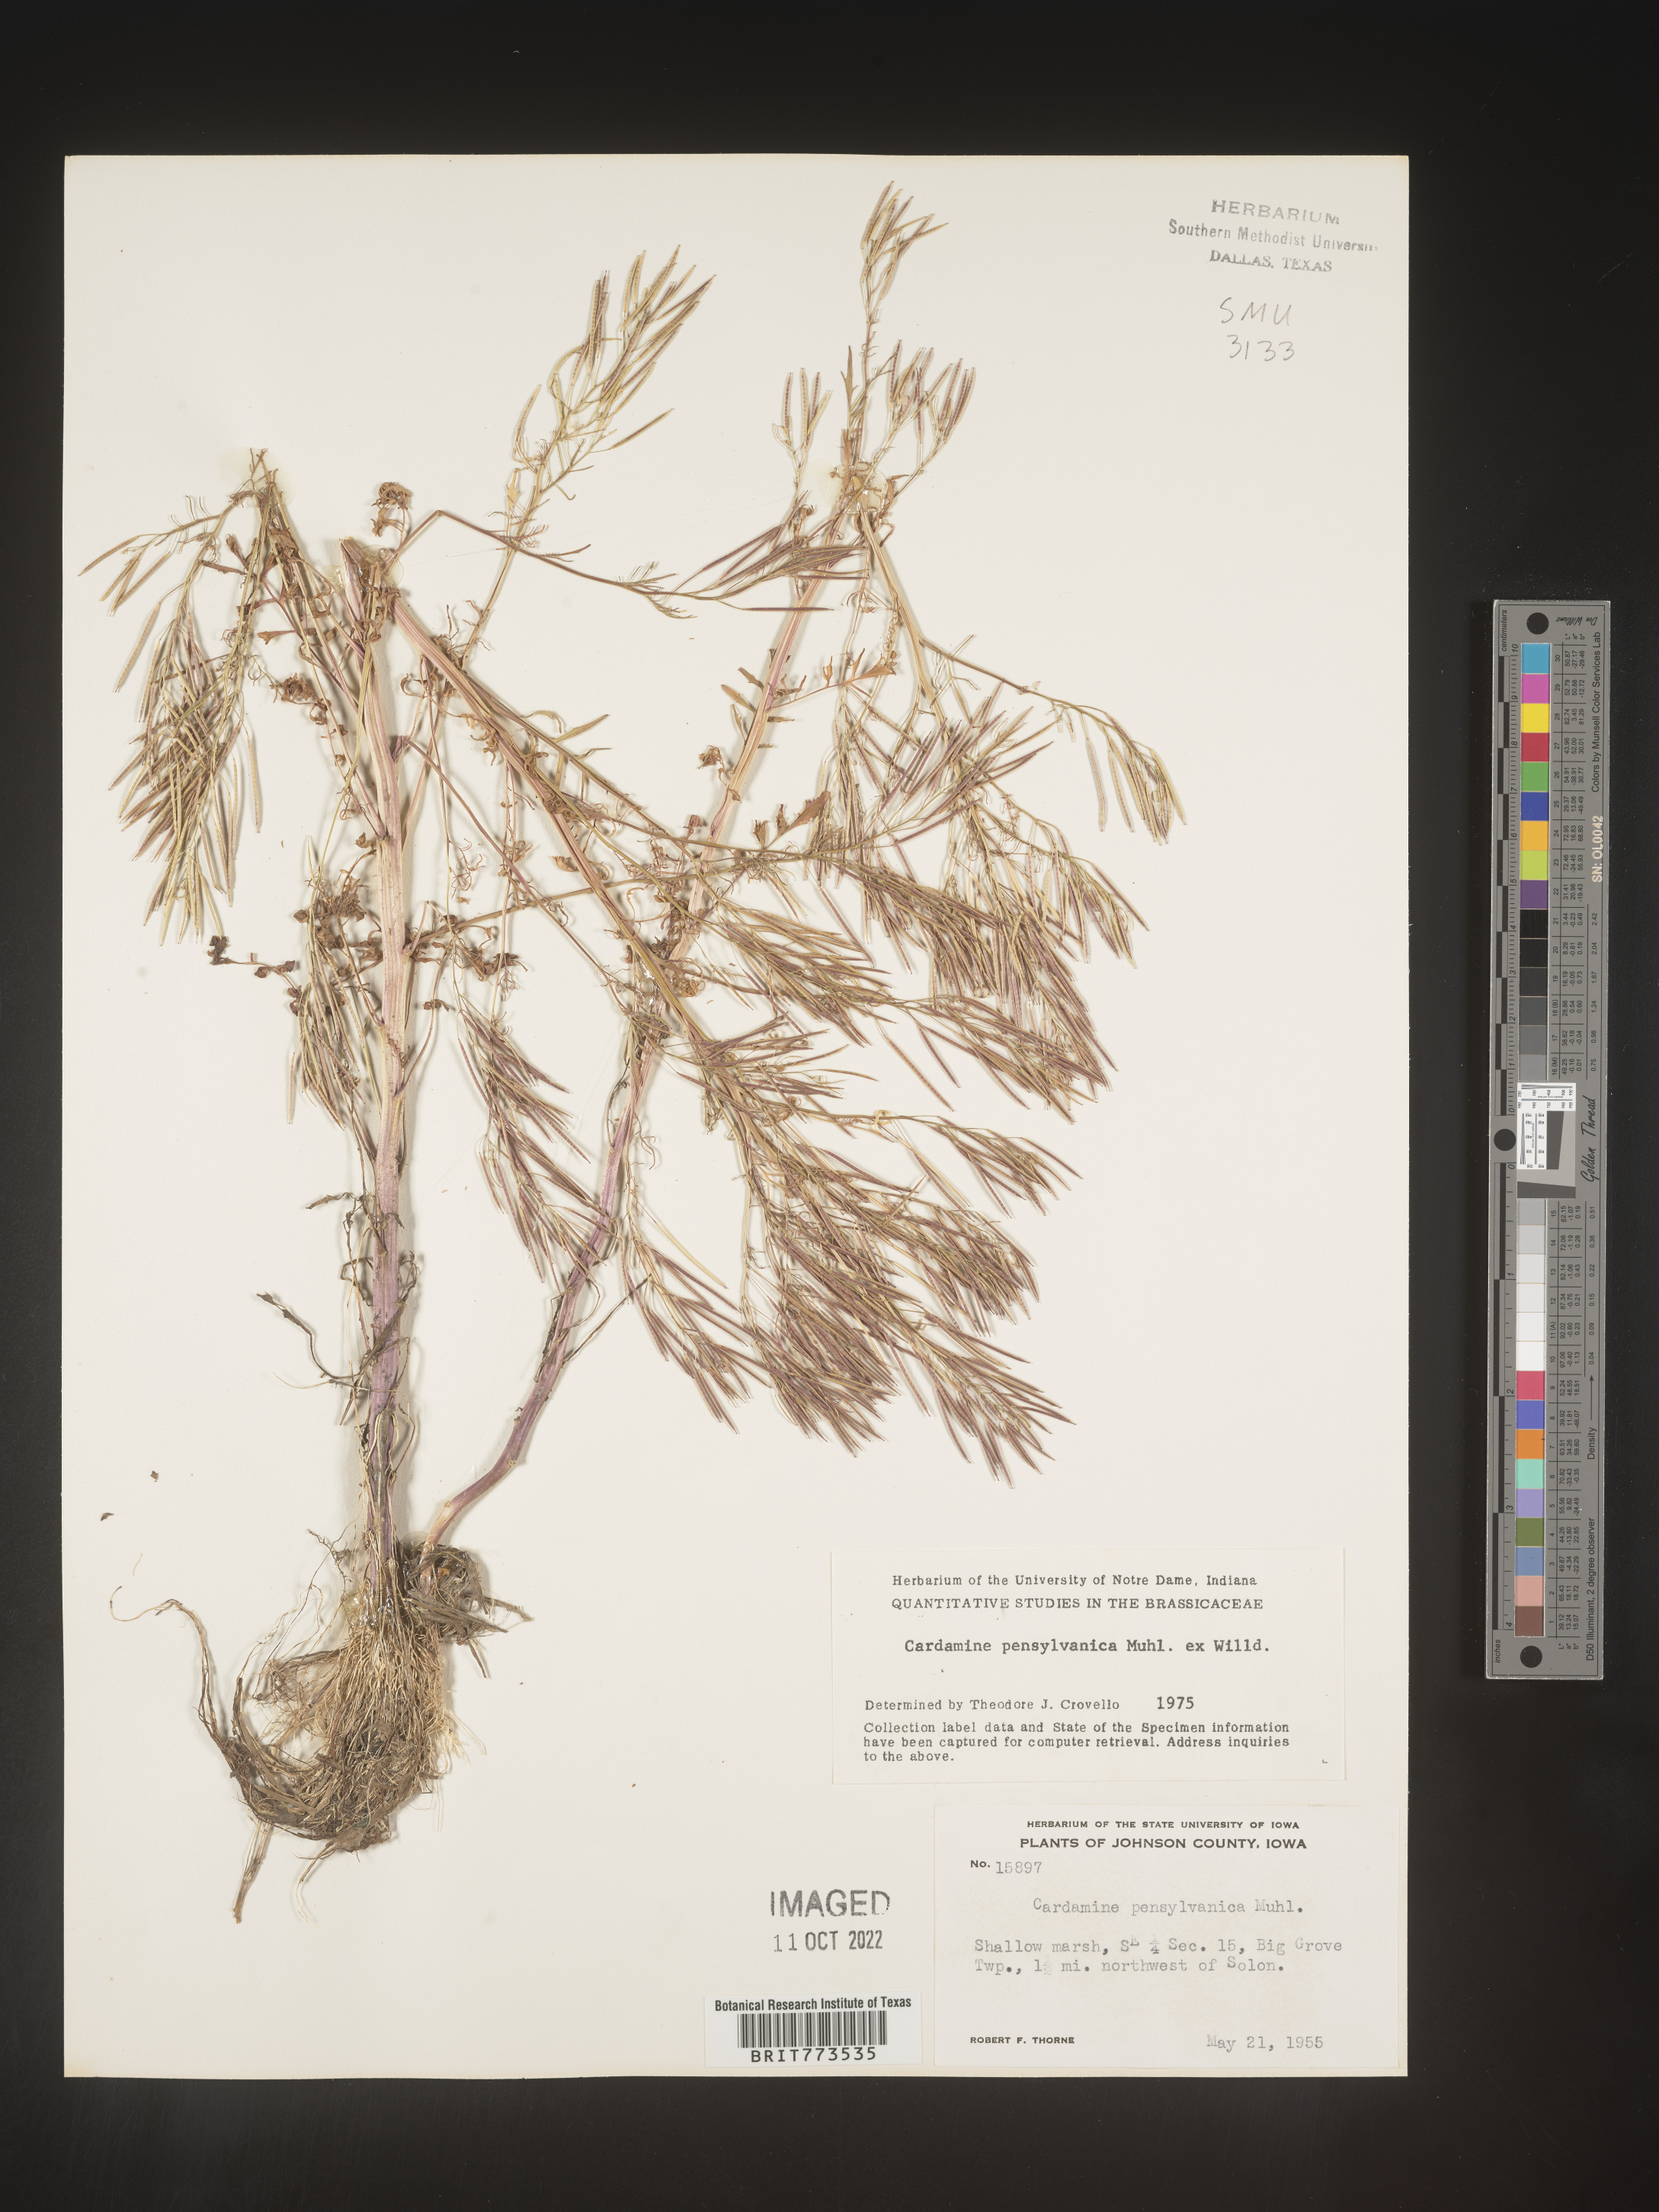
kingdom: Plantae
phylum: Tracheophyta
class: Magnoliopsida
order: Brassicales
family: Brassicaceae
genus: Cardamine
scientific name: Cardamine pensylvanica
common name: Pennsylvania bittercress
